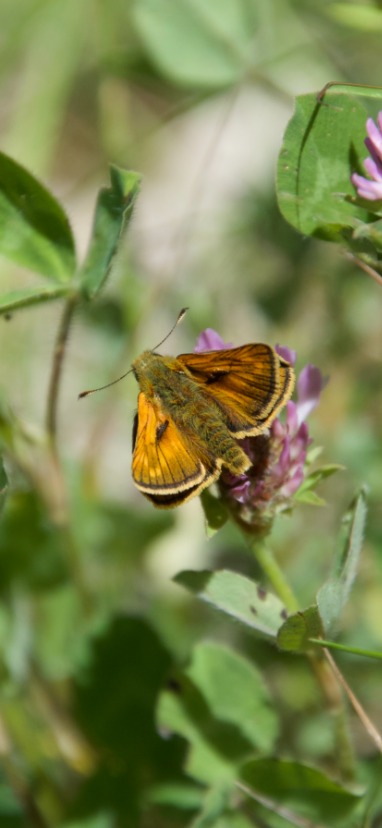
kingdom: Animalia
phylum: Arthropoda
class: Insecta
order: Lepidoptera
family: Hesperiidae
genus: Ochlodes
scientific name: Ochlodes venata
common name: Stor bredpande
